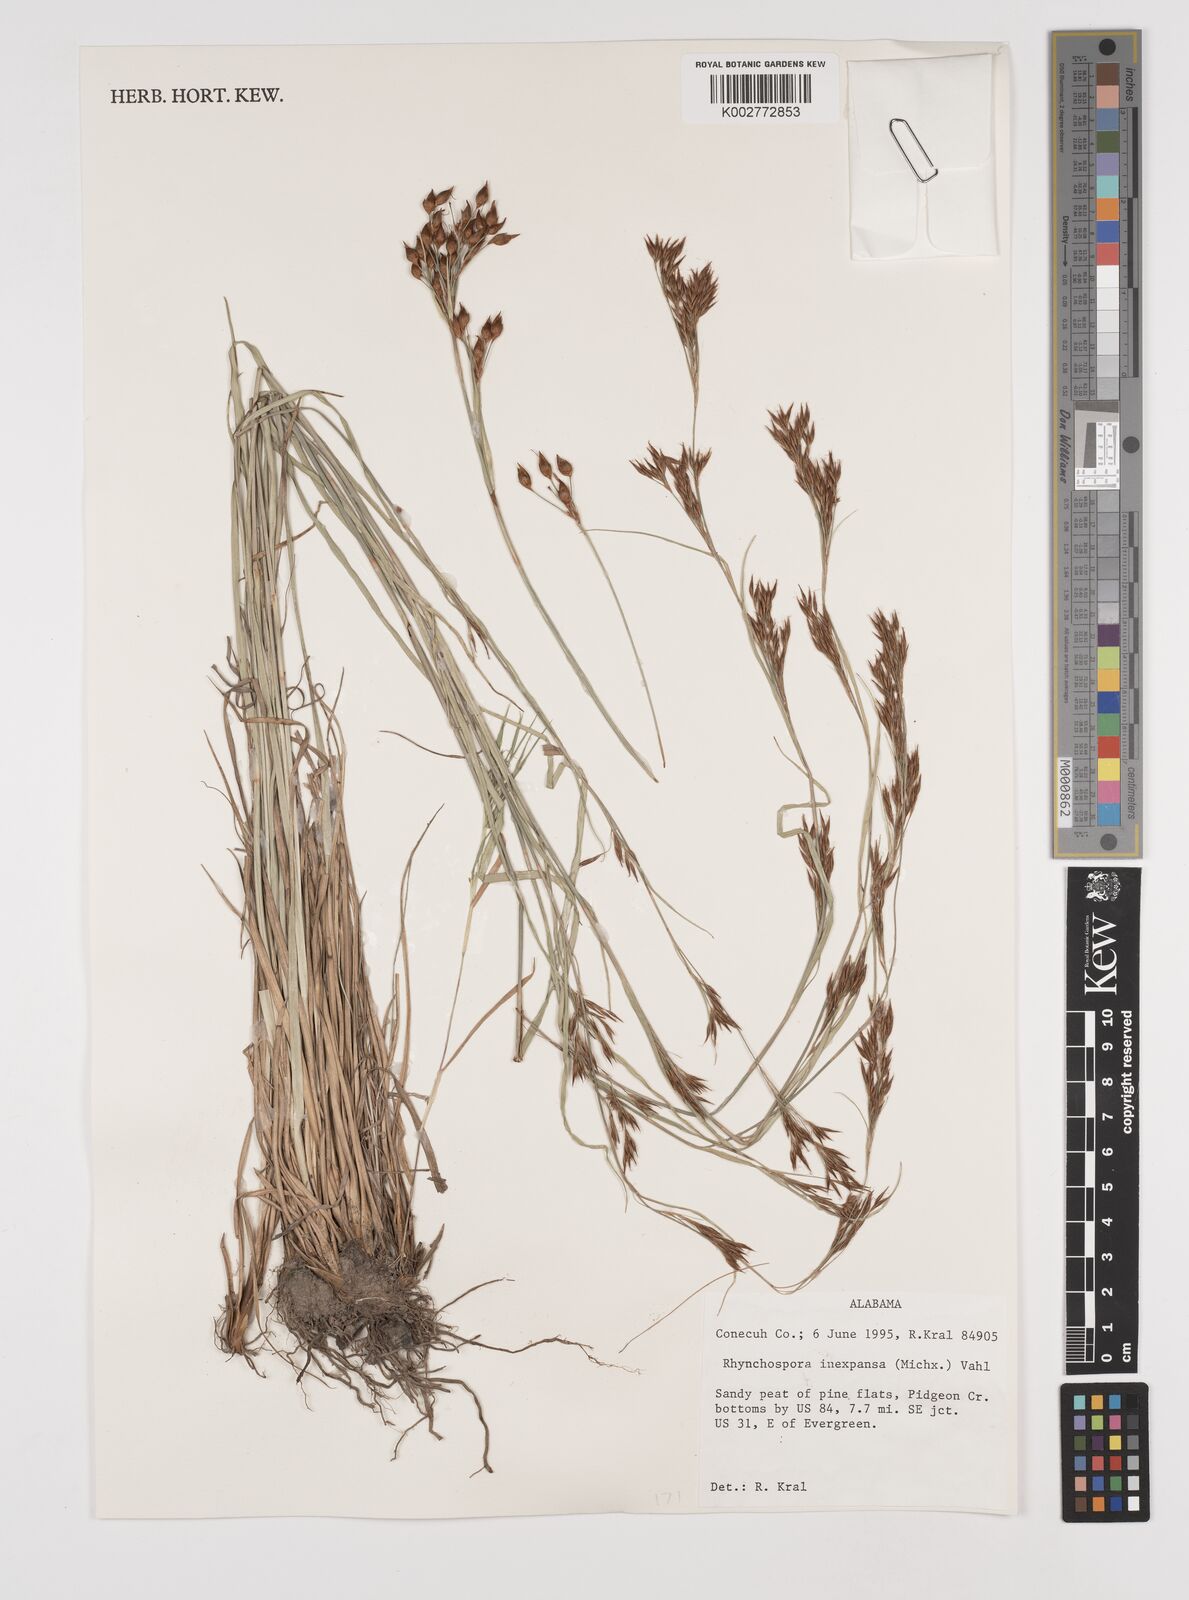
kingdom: Plantae
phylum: Tracheophyta
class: Liliopsida
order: Poales
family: Cyperaceae
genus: Rhynchospora
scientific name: Rhynchospora inexpansa
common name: Nodding beaksedge
